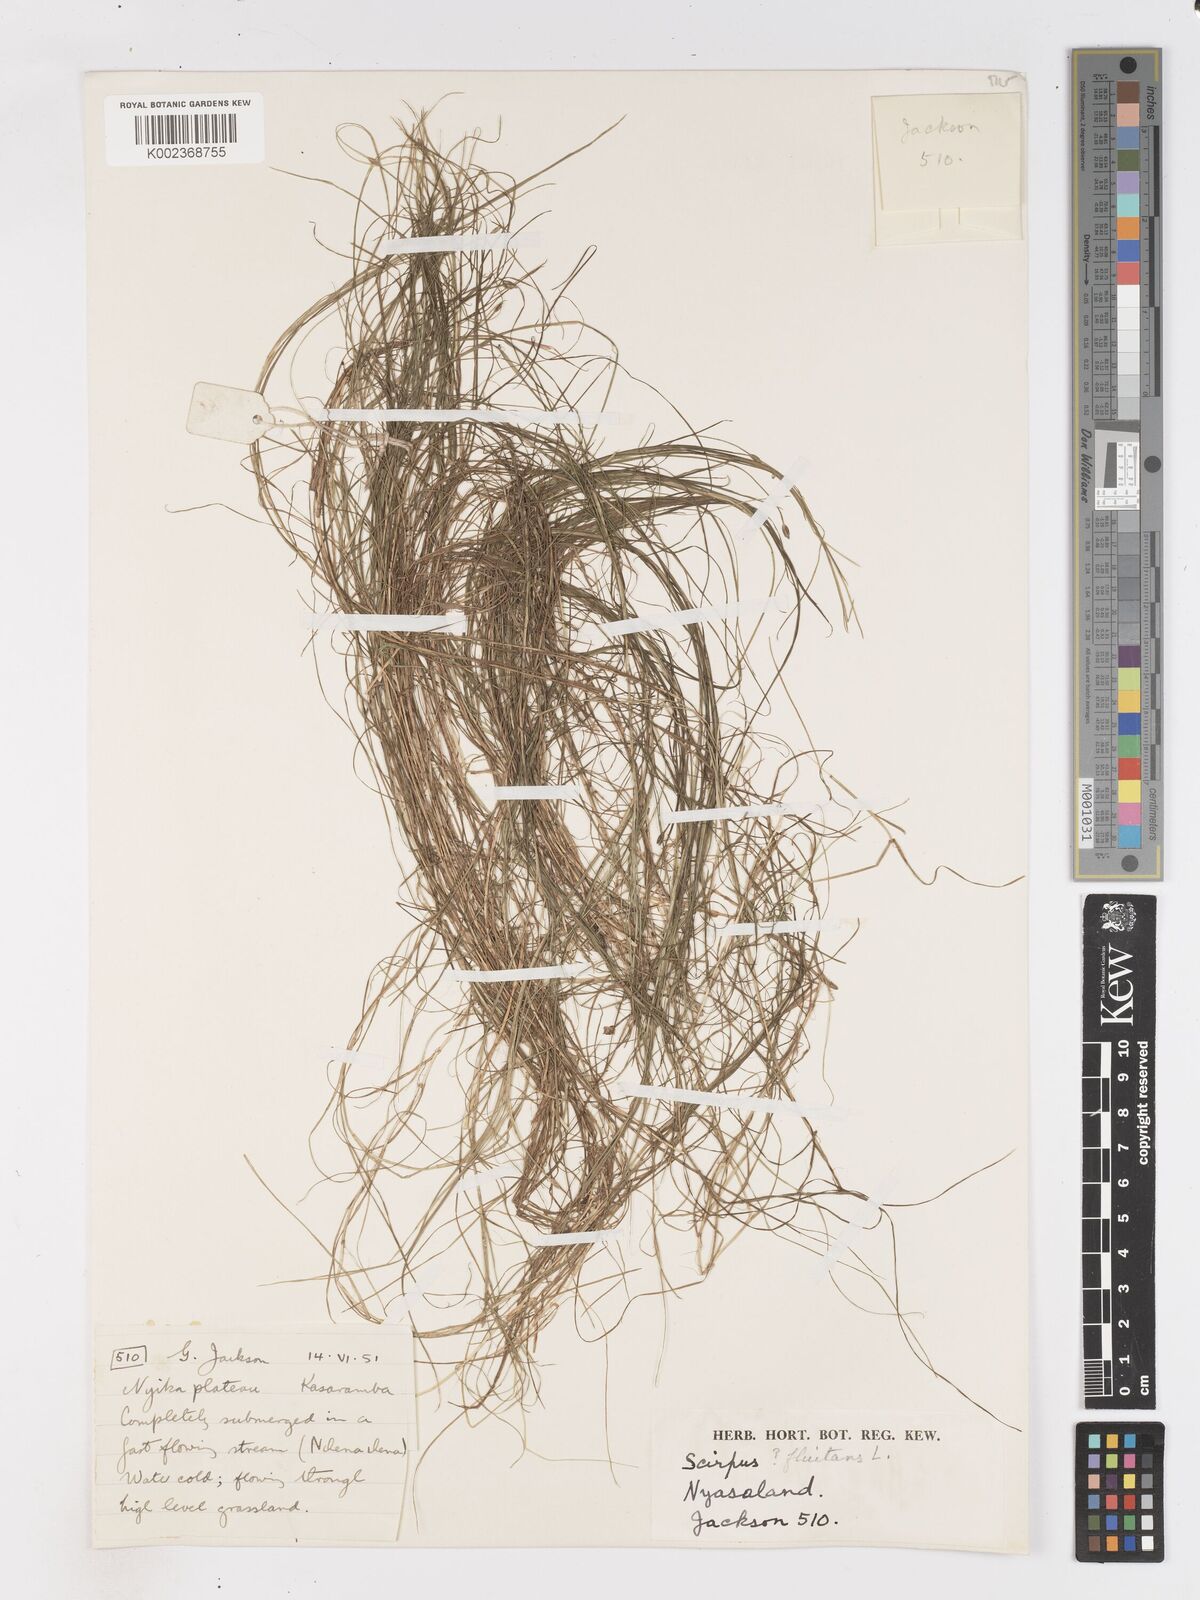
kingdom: Plantae
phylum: Tracheophyta
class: Liliopsida
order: Poales
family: Cyperaceae
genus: Isolepis
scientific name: Isolepis fluitans
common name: Floating club-rush
